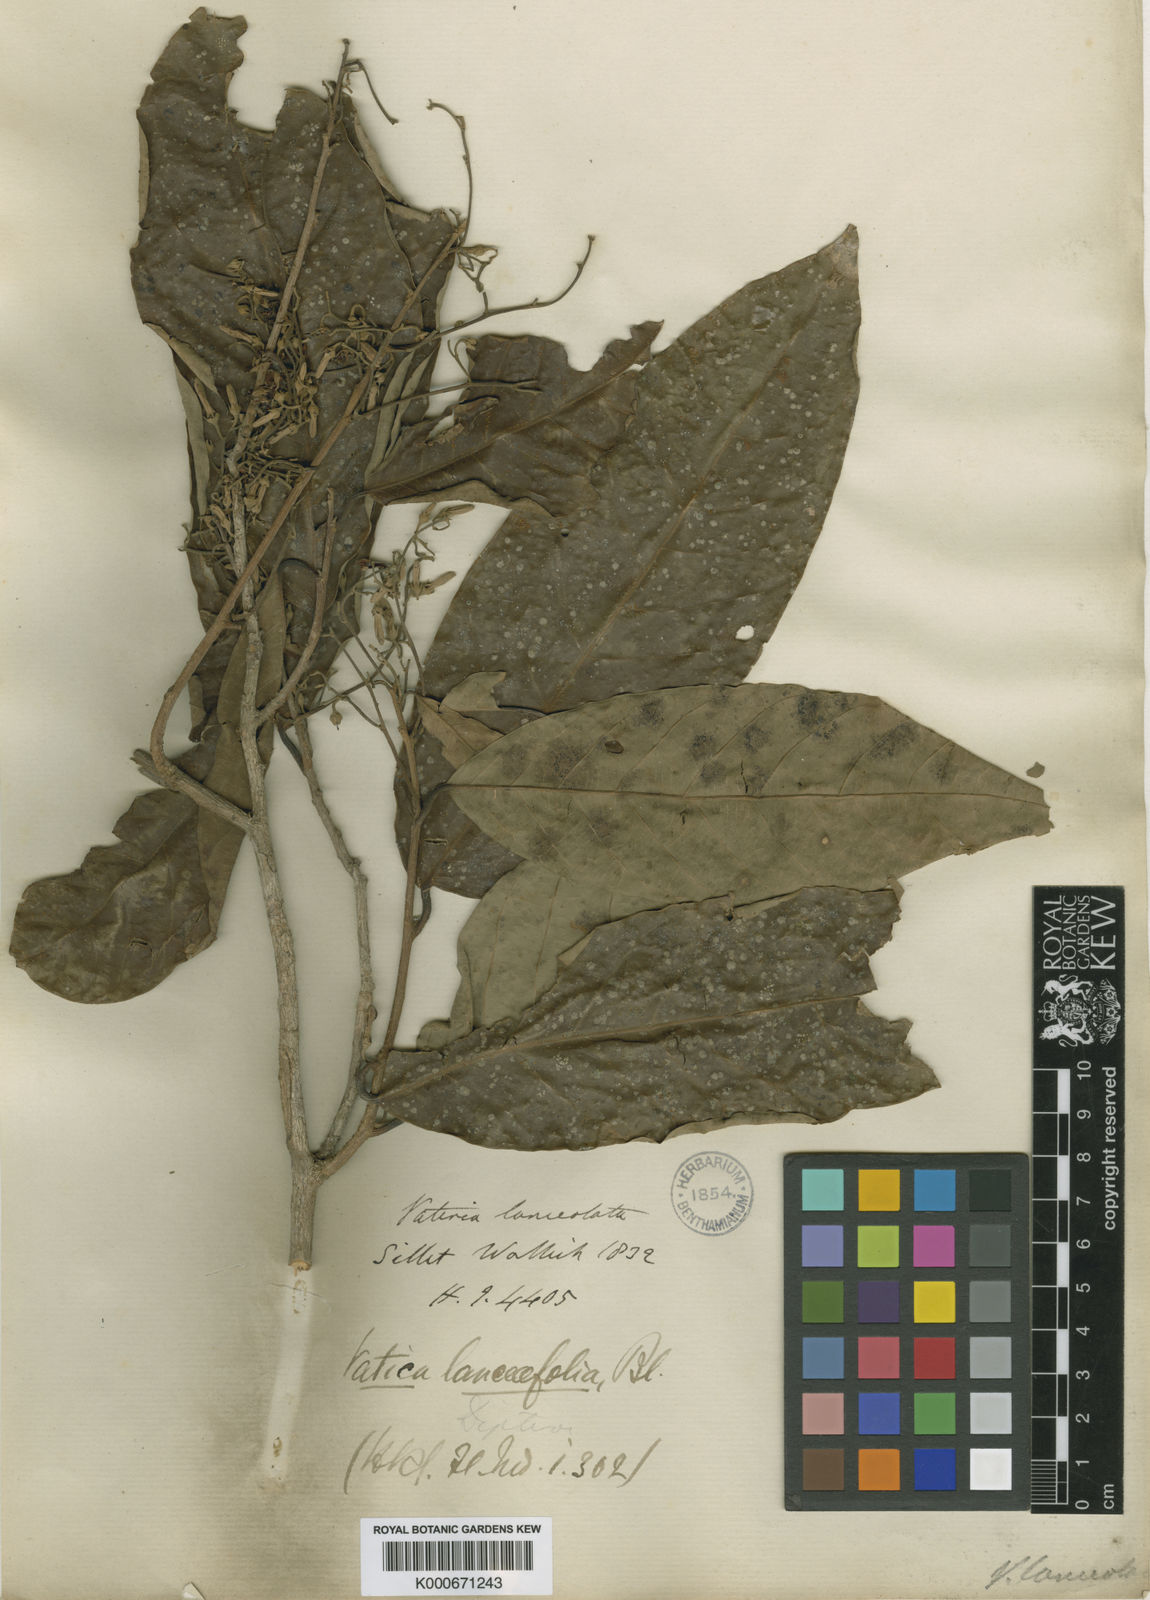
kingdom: Plantae
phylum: Tracheophyta
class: Magnoliopsida
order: Malvales
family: Dipterocarpaceae
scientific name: Dipterocarpaceae
